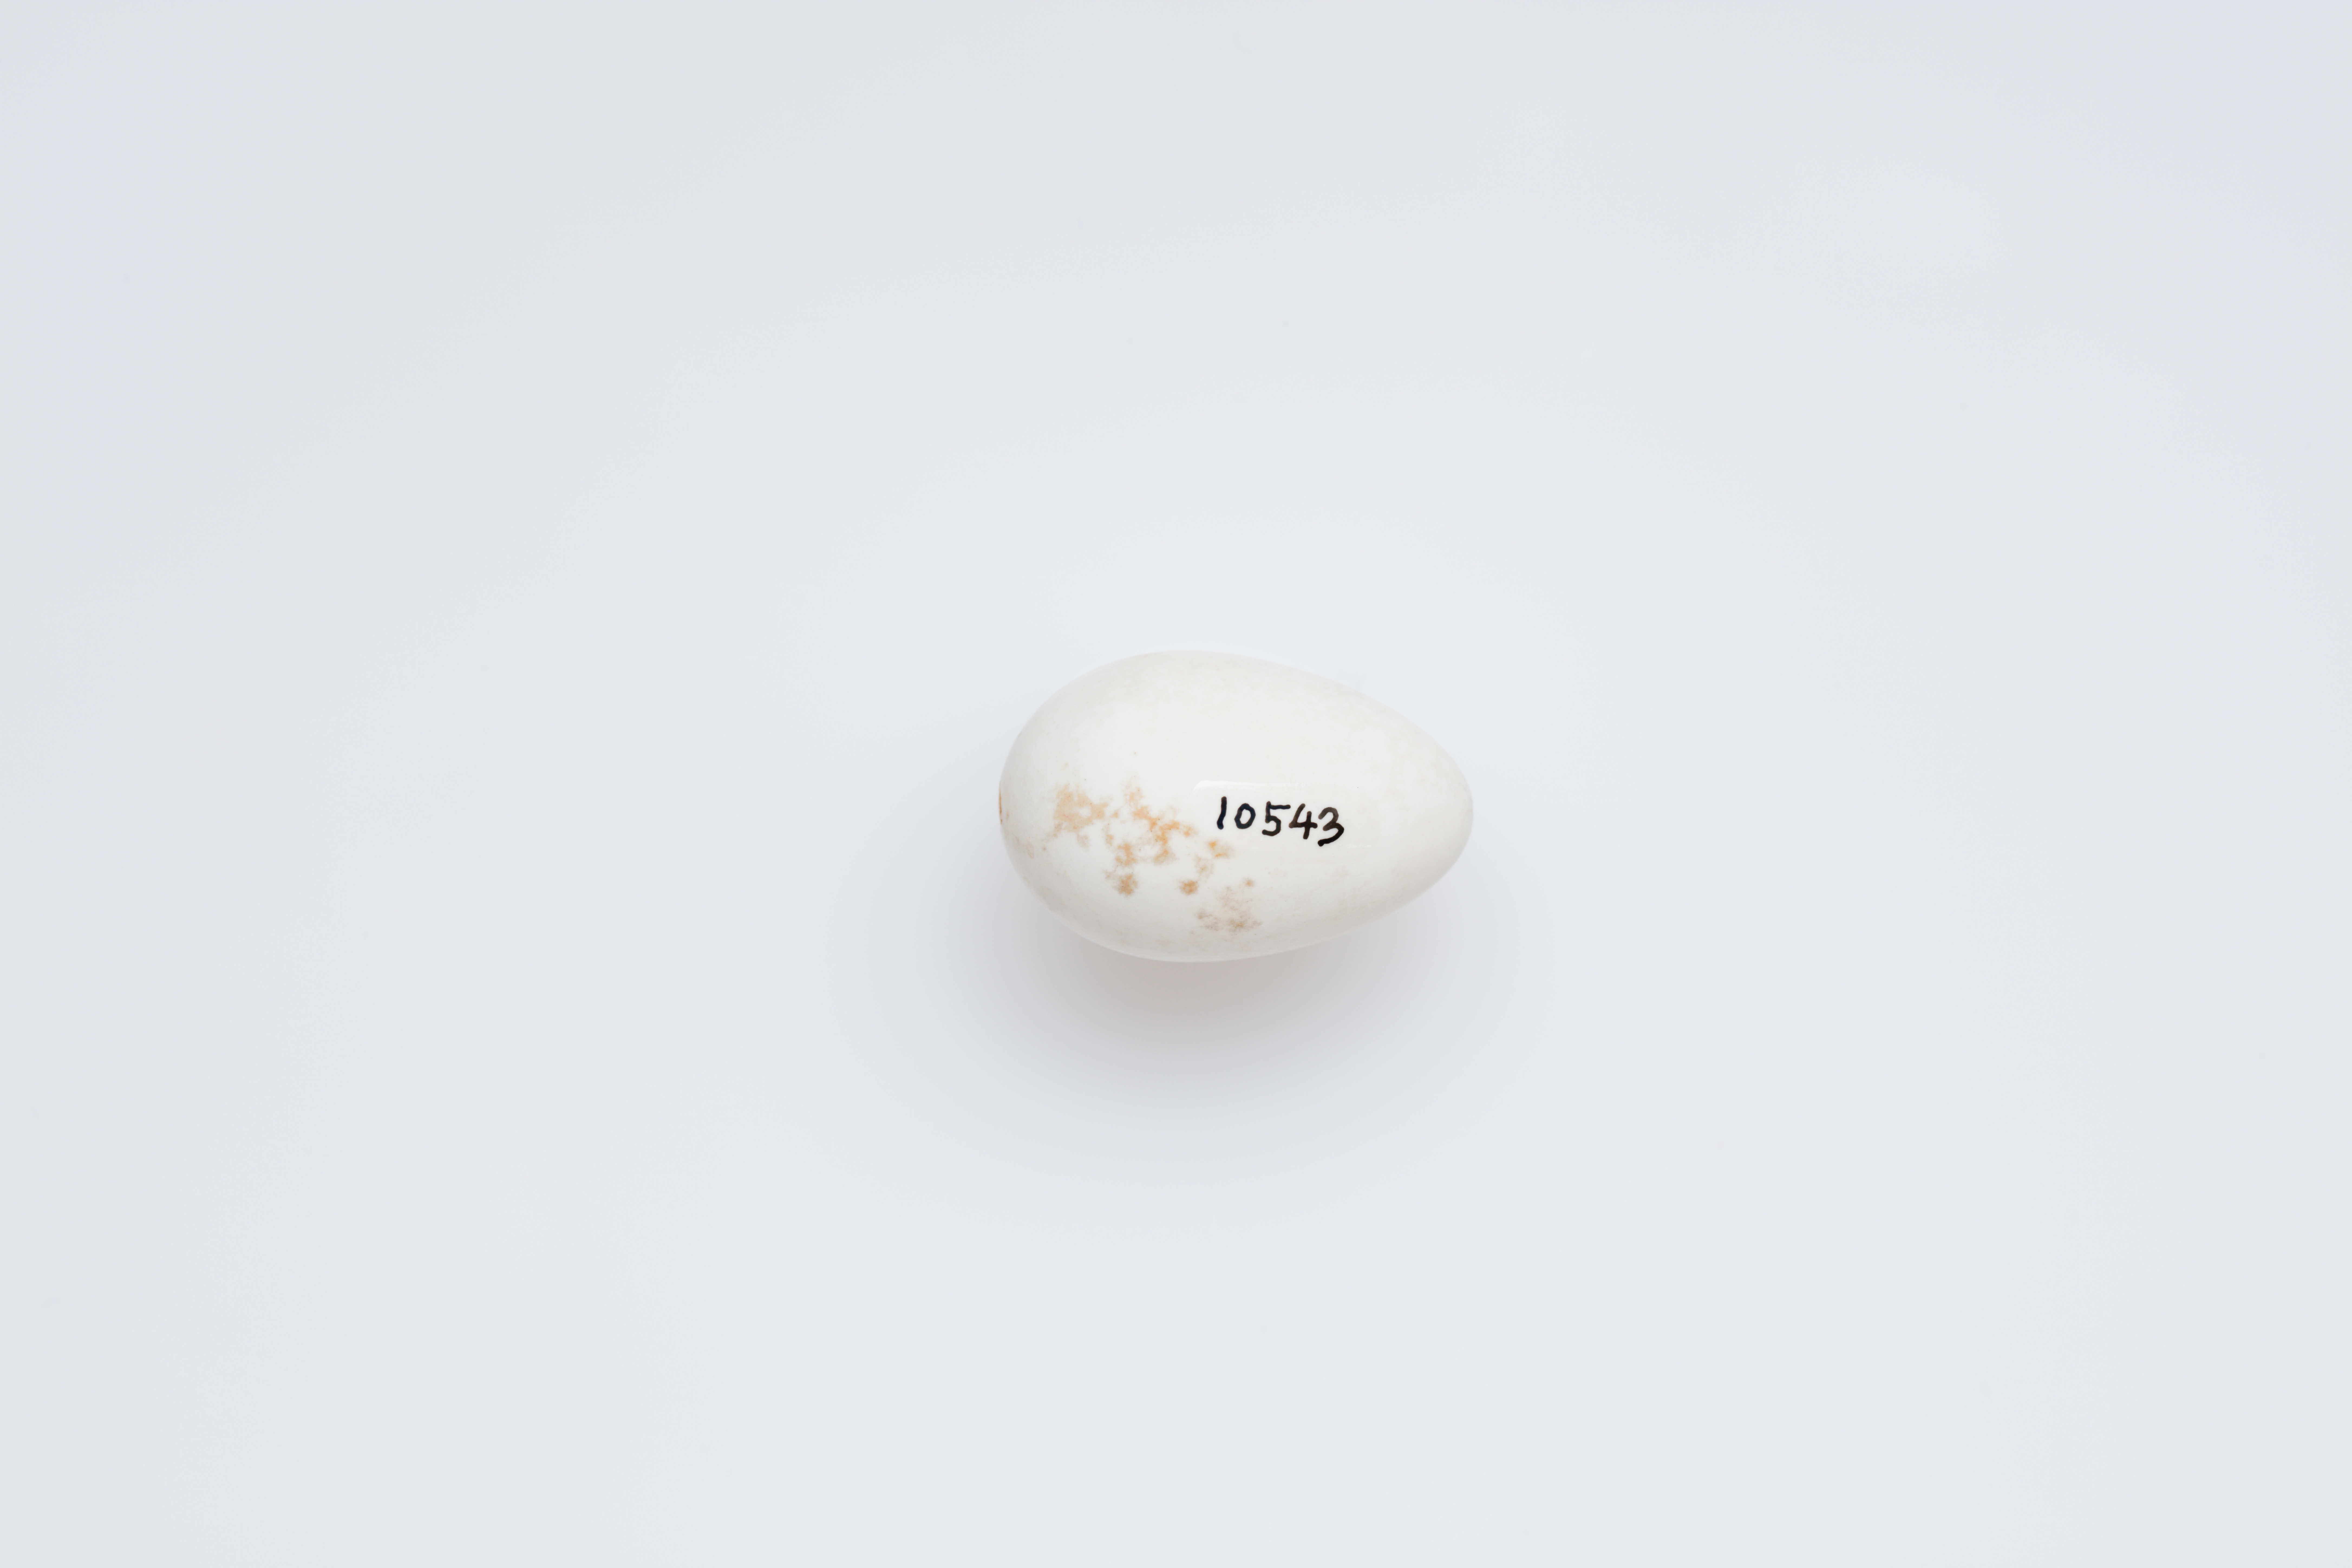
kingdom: Animalia
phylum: Chordata
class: Aves
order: Apodiformes
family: Apodidae
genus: Apus
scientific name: Apus apus
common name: Common swift
